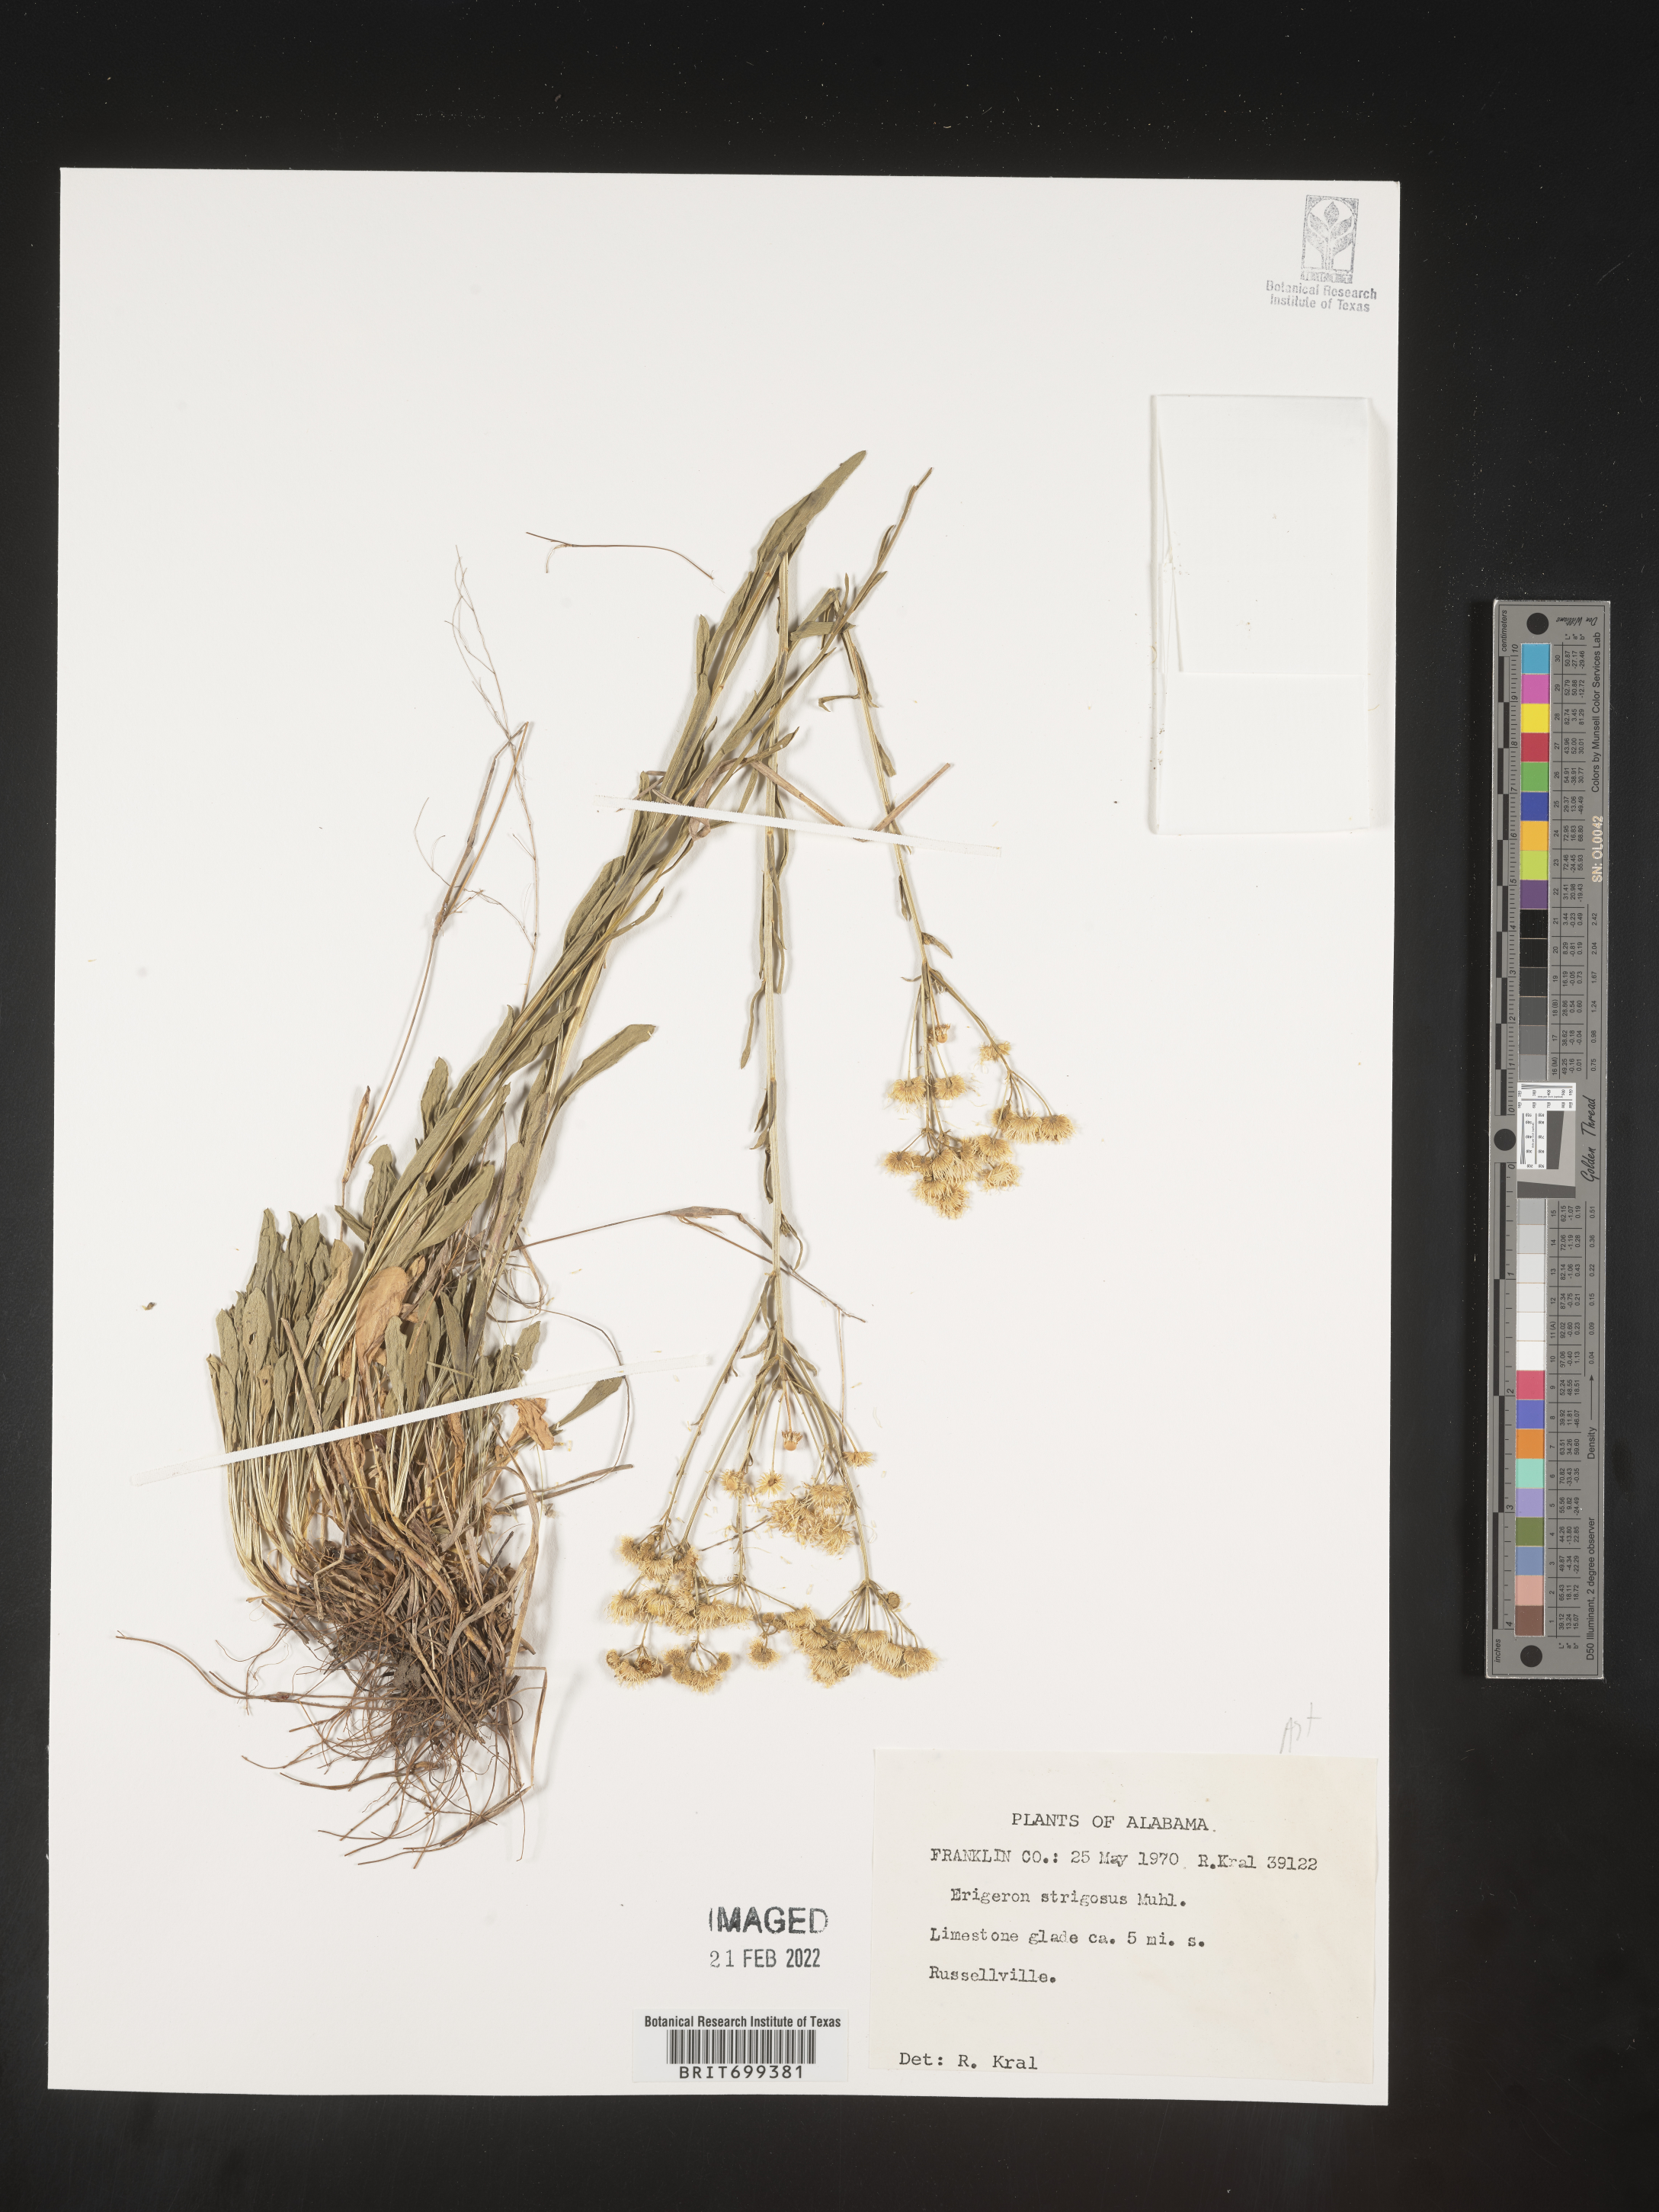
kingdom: Plantae
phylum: Tracheophyta
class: Magnoliopsida
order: Asterales
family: Asteraceae
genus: Erigeron
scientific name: Erigeron strigosus
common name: Common eastern fleabane
